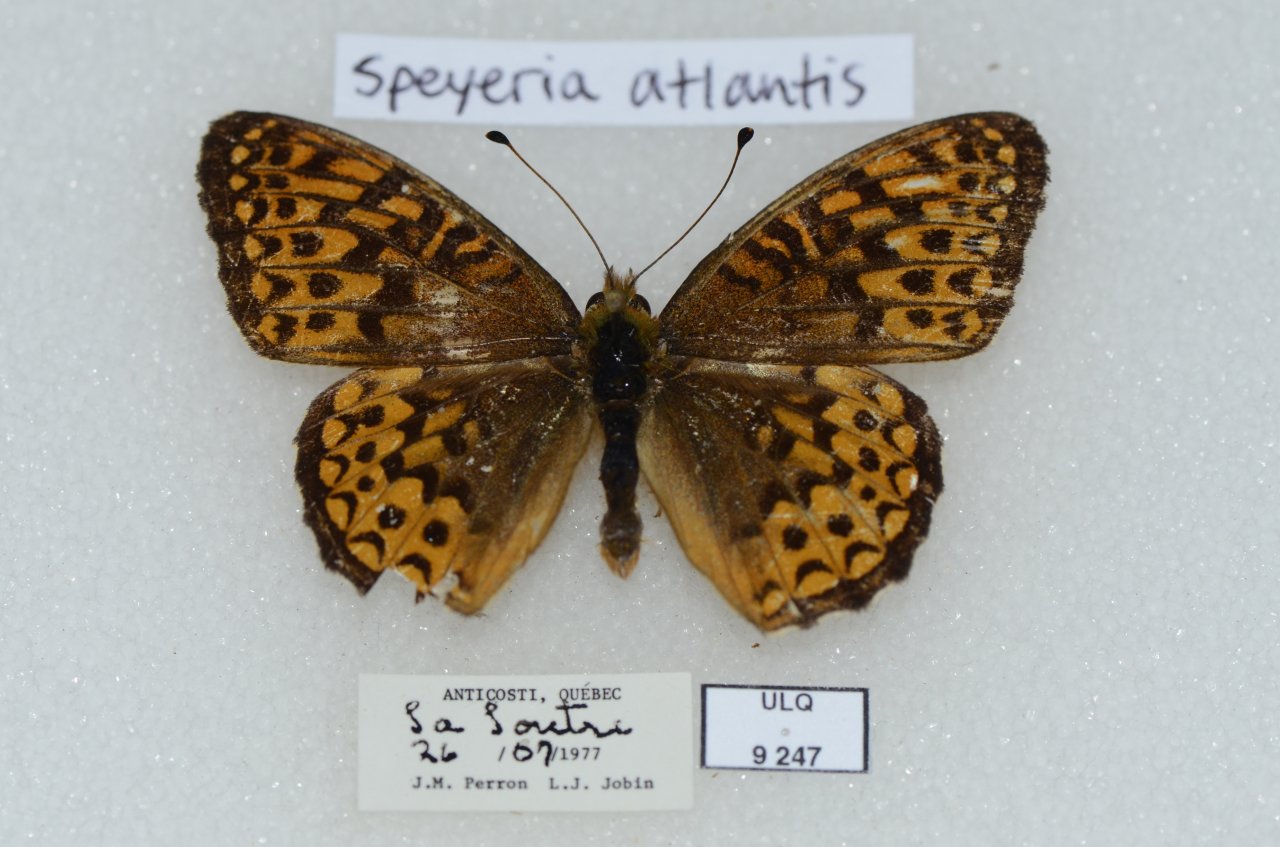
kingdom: Animalia
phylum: Arthropoda
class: Insecta
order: Lepidoptera
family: Nymphalidae
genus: Speyeria
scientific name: Speyeria atlantis
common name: Atlantis Fritillary
